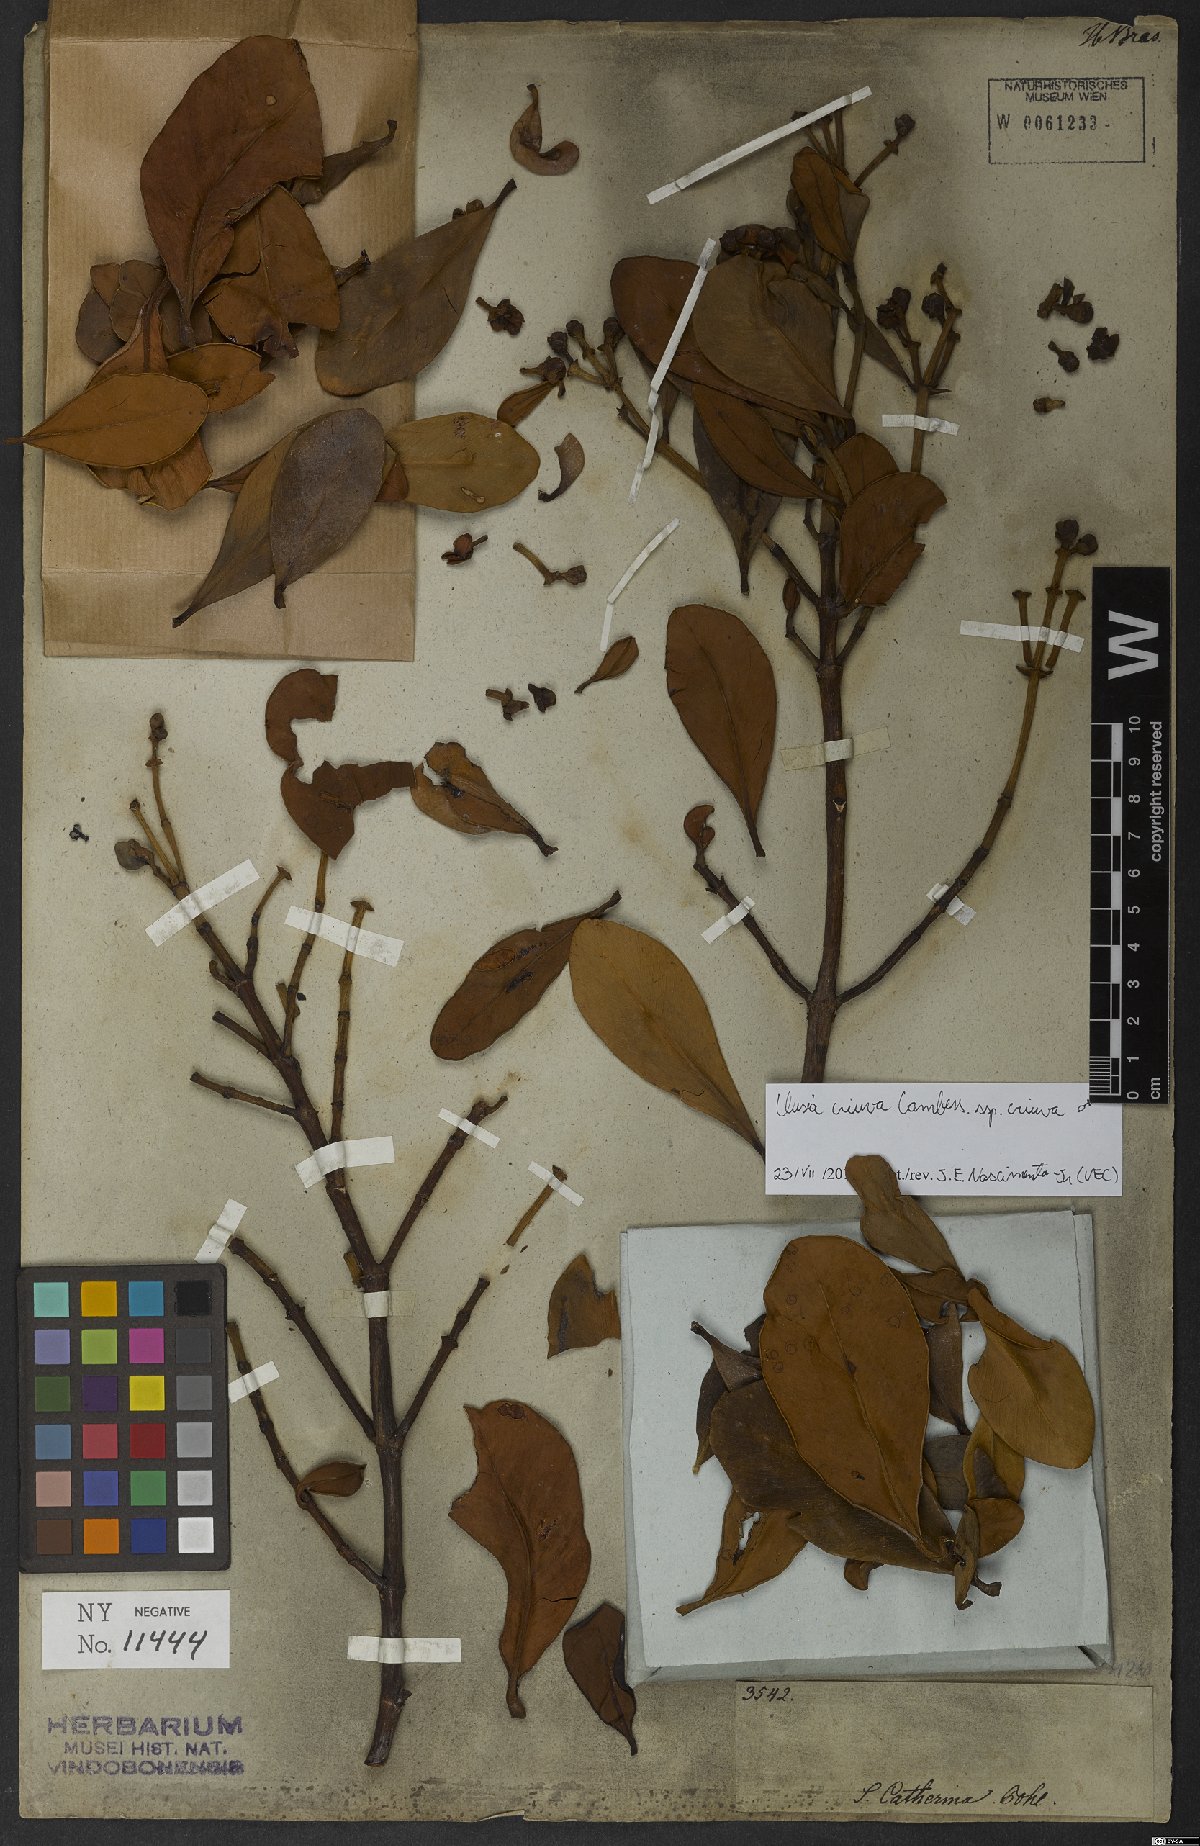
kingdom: Plantae
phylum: Tracheophyta
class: Magnoliopsida
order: Malpighiales
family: Clusiaceae
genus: Clusia
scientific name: Clusia criuva
